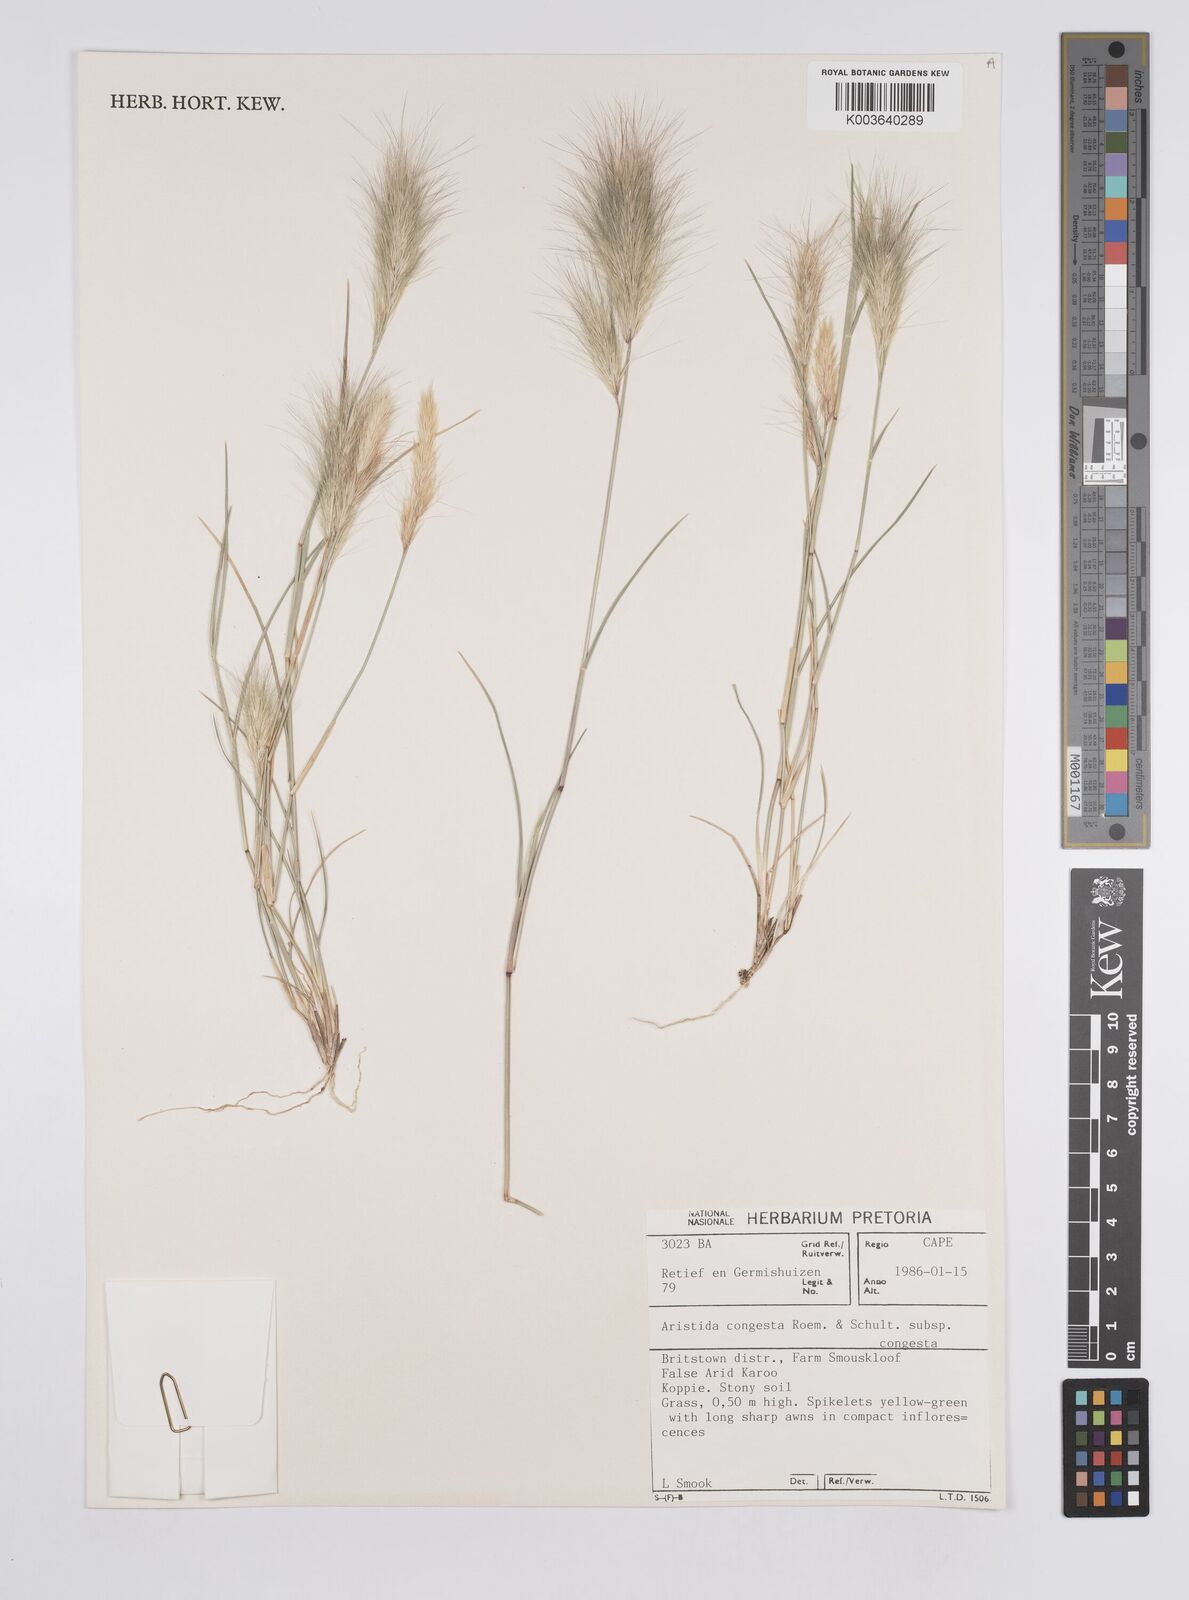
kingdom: Plantae
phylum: Tracheophyta
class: Liliopsida
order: Poales
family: Poaceae
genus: Aristida
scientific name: Aristida congesta
